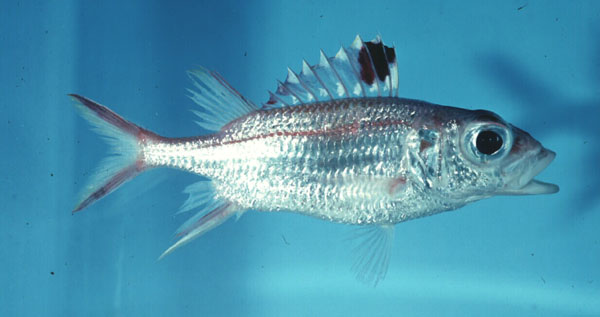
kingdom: Animalia
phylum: Chordata
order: Beryciformes
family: Holocentridae
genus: Neoniphon
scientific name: Neoniphon sammara
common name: Sammara squirrelfish
